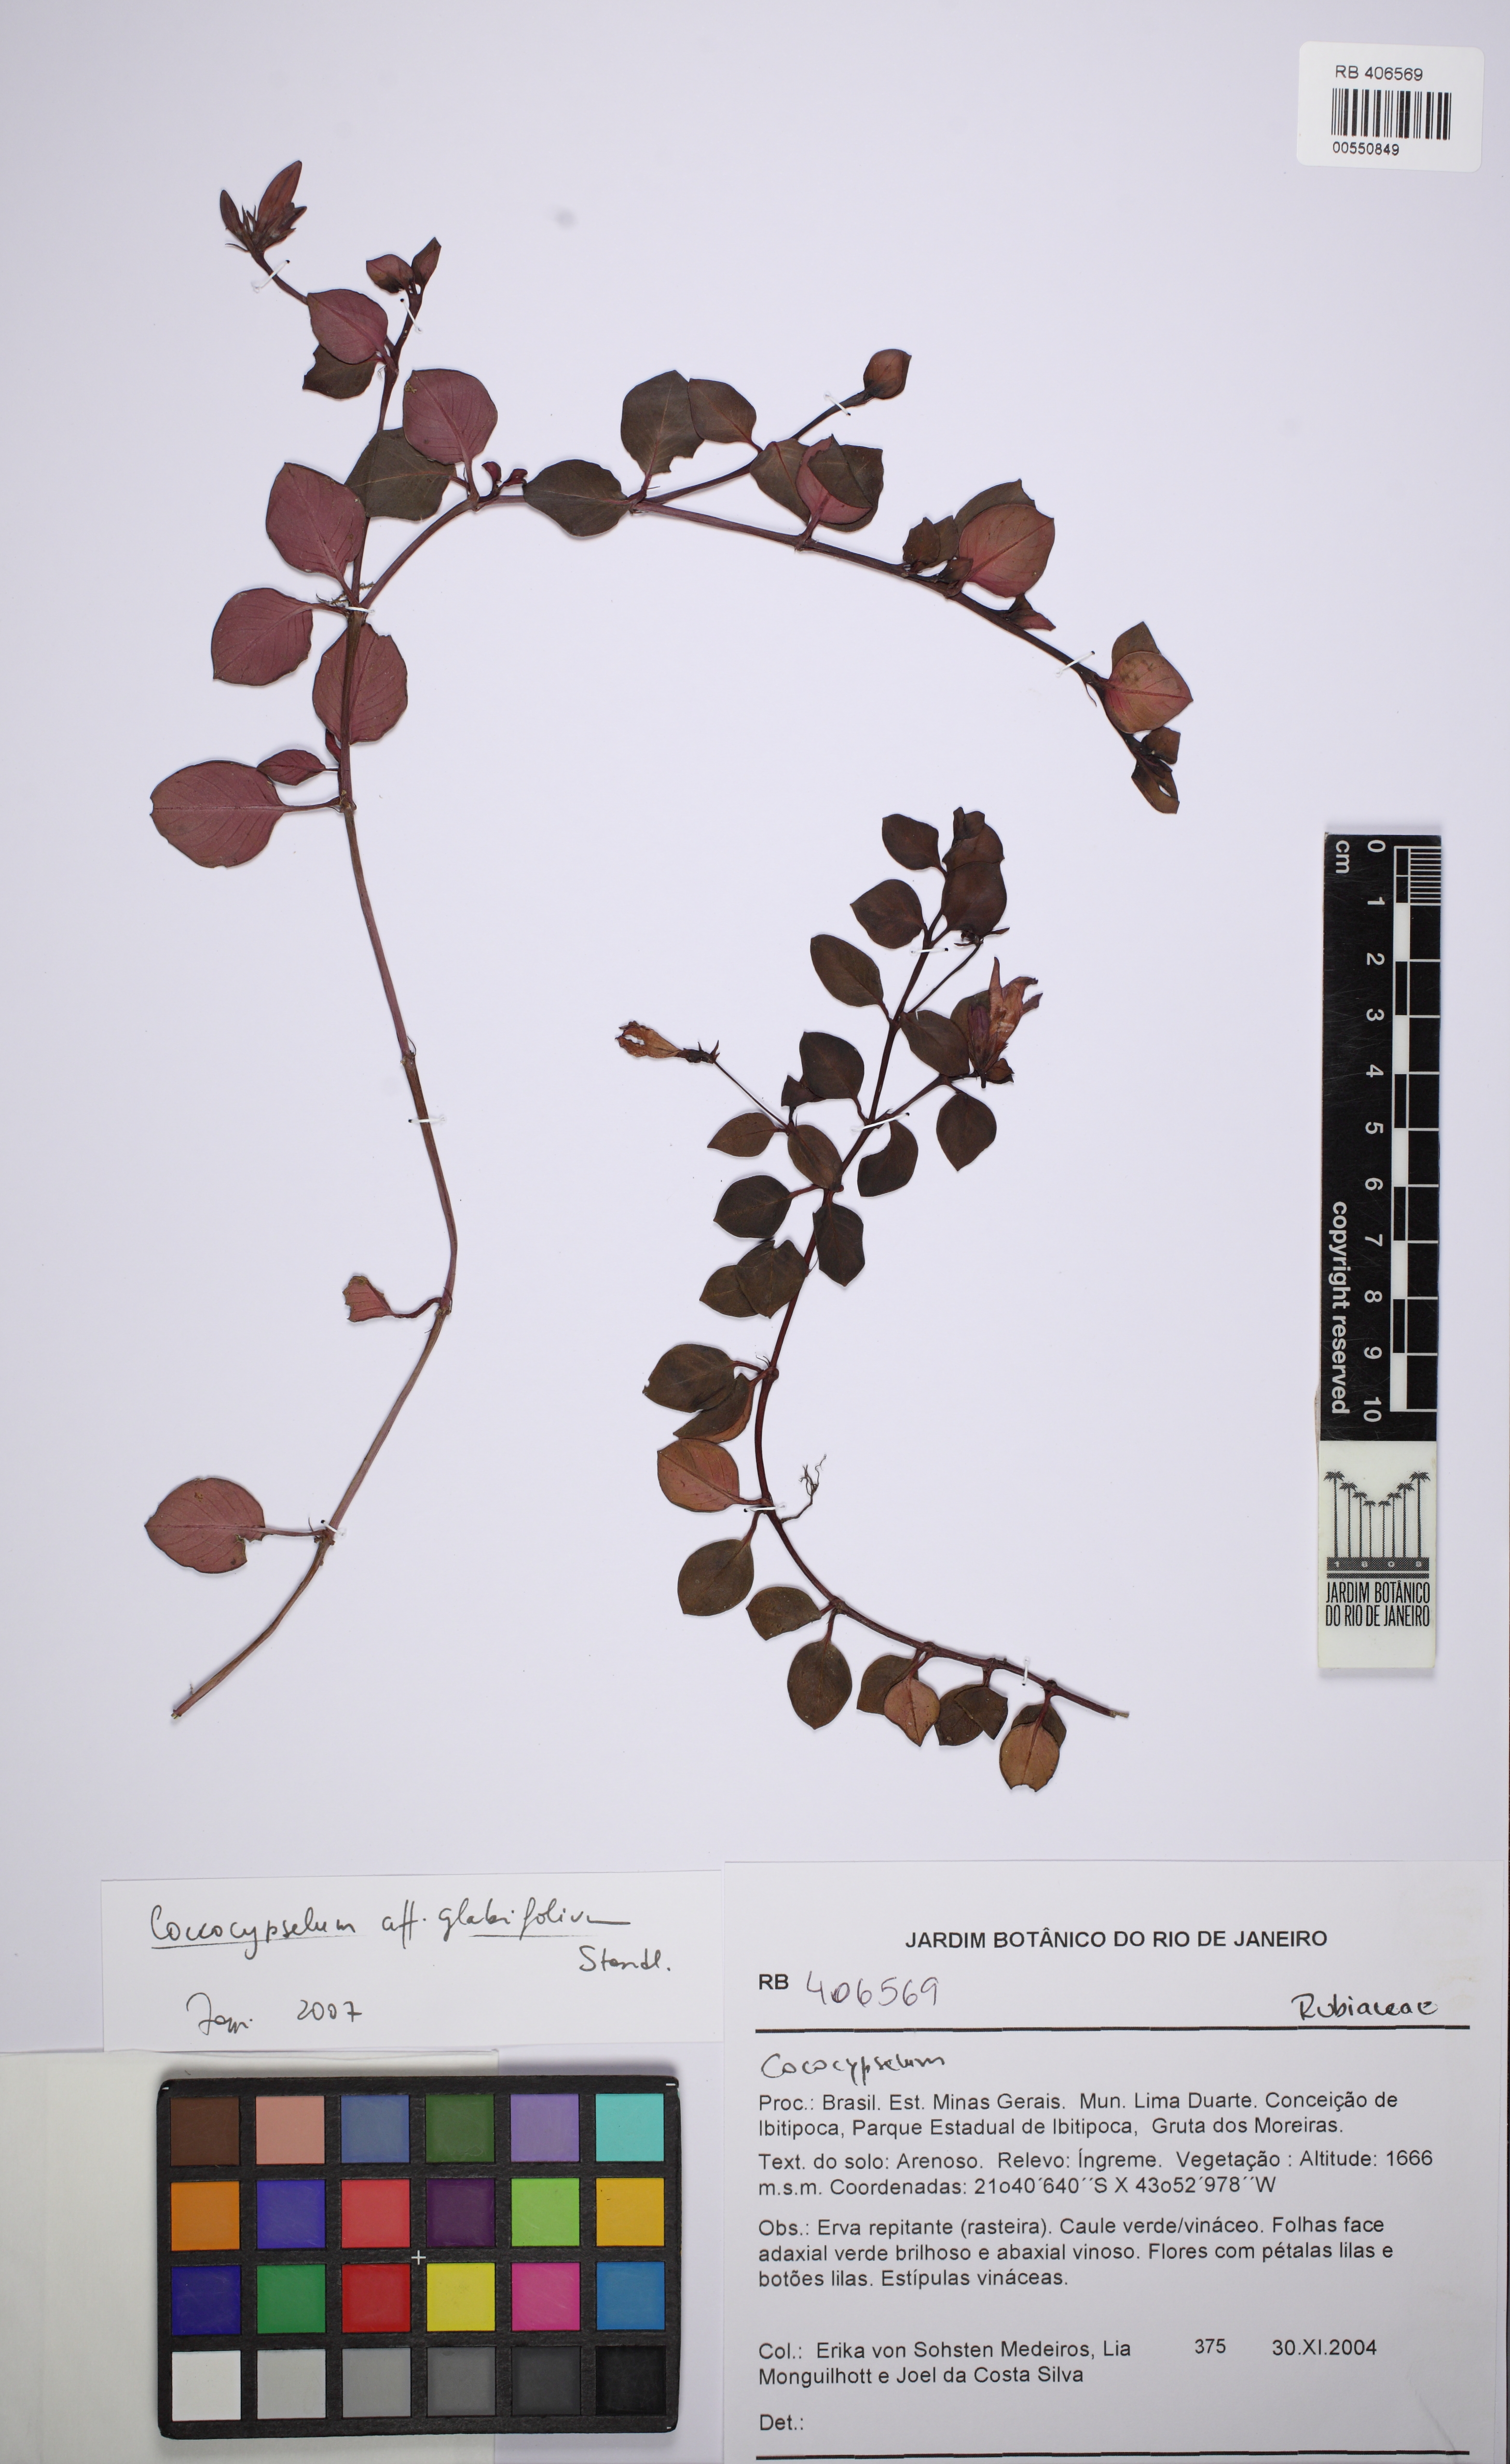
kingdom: Plantae
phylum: Tracheophyta
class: Magnoliopsida
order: Gentianales
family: Rubiaceae
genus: Coccocypselum
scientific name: Coccocypselum glabrifolium
